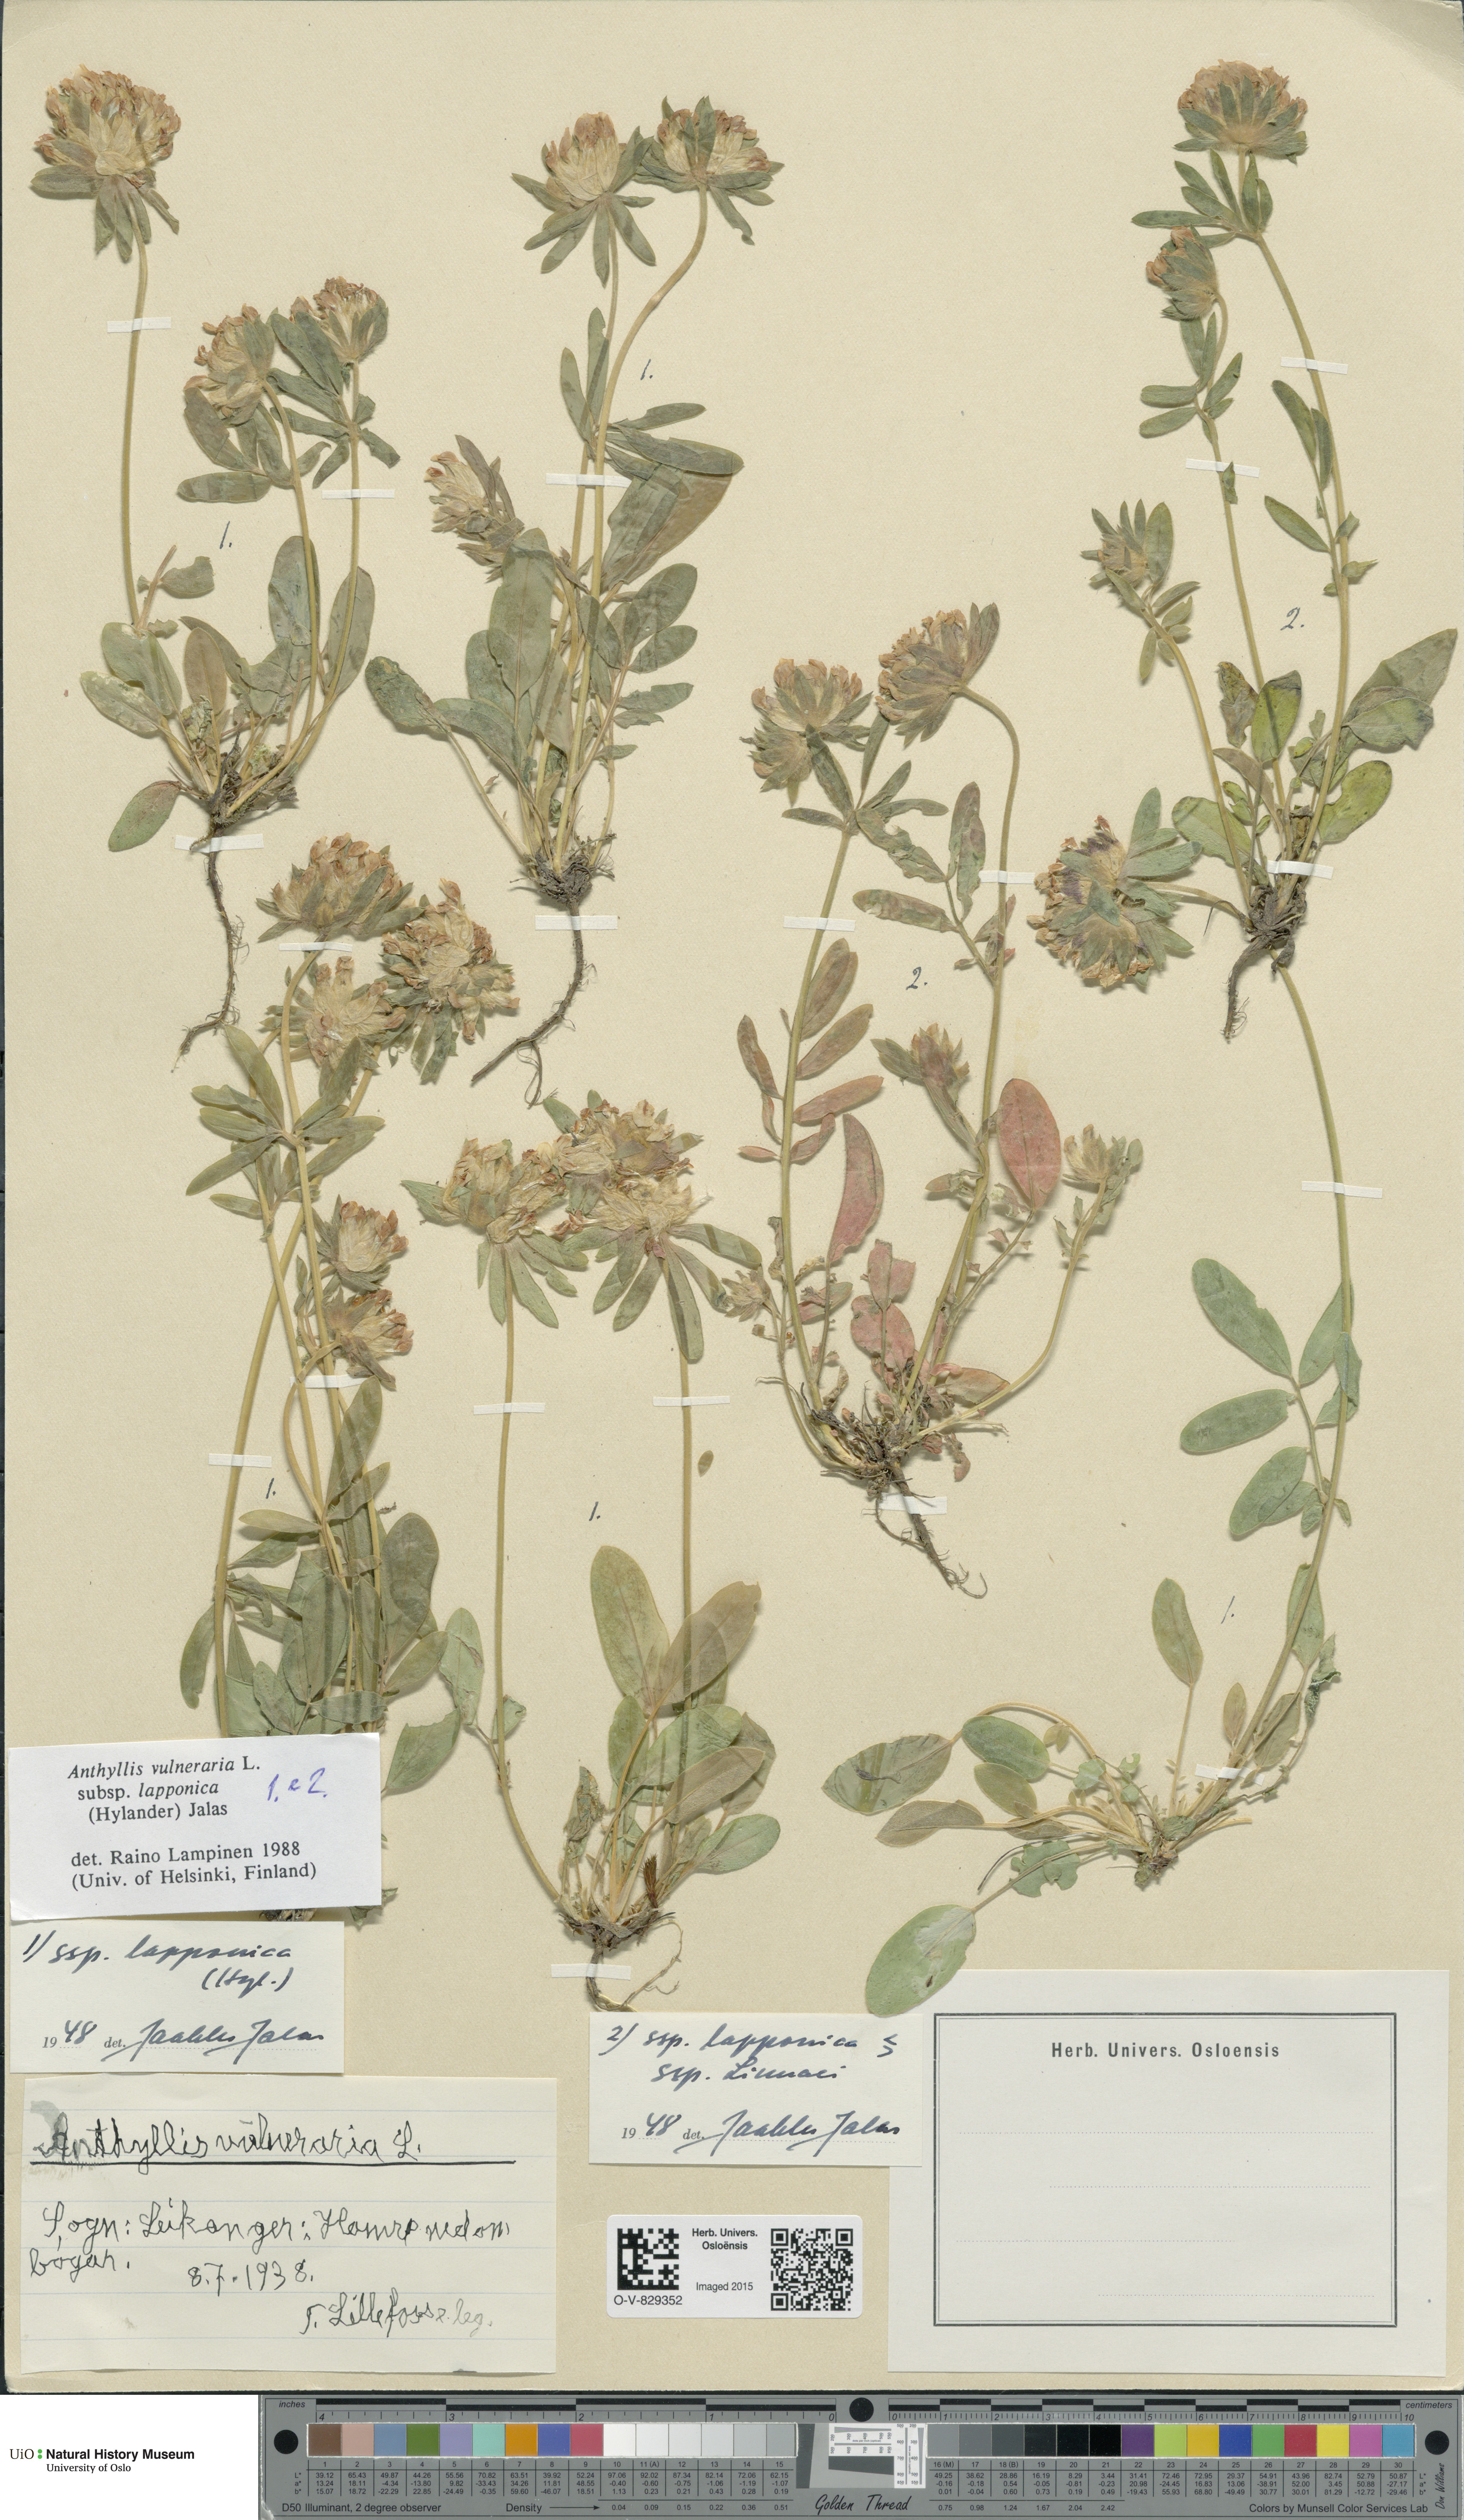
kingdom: Plantae
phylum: Tracheophyta
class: Magnoliopsida
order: Fabales
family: Fabaceae
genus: Anthyllis
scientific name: Anthyllis vulneraria
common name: Kidney vetch
